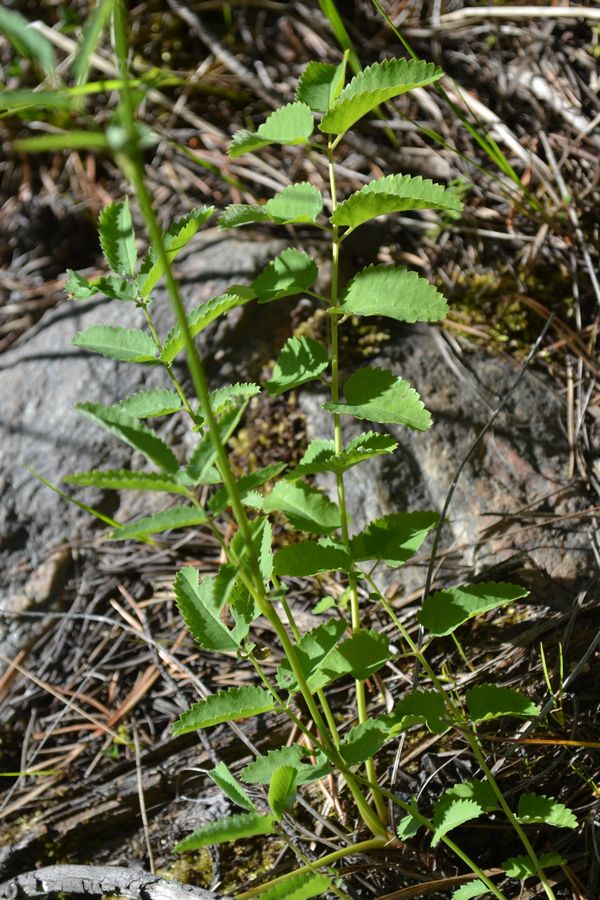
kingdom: Plantae
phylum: Tracheophyta
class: Magnoliopsida
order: Rosales
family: Rosaceae
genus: Sanguisorba
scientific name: Sanguisorba officinalis
